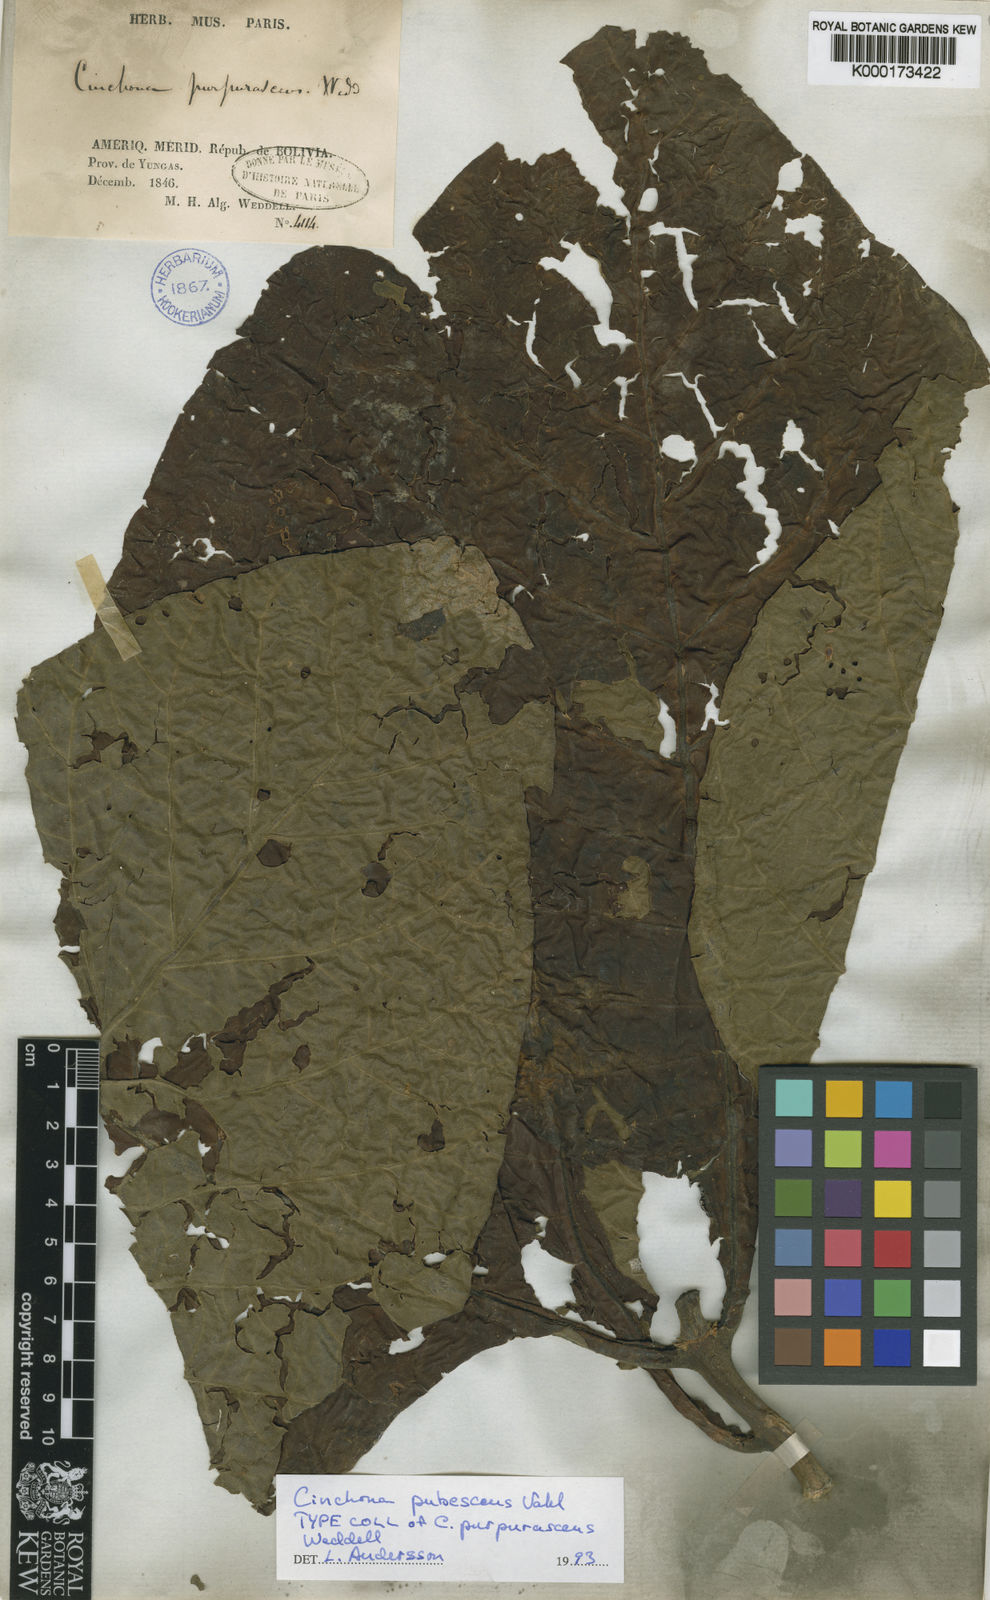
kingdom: Plantae
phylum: Tracheophyta
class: Magnoliopsida
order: Gentianales
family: Rubiaceae
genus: Cinchona
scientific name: Cinchona pubescens
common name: Quinine
